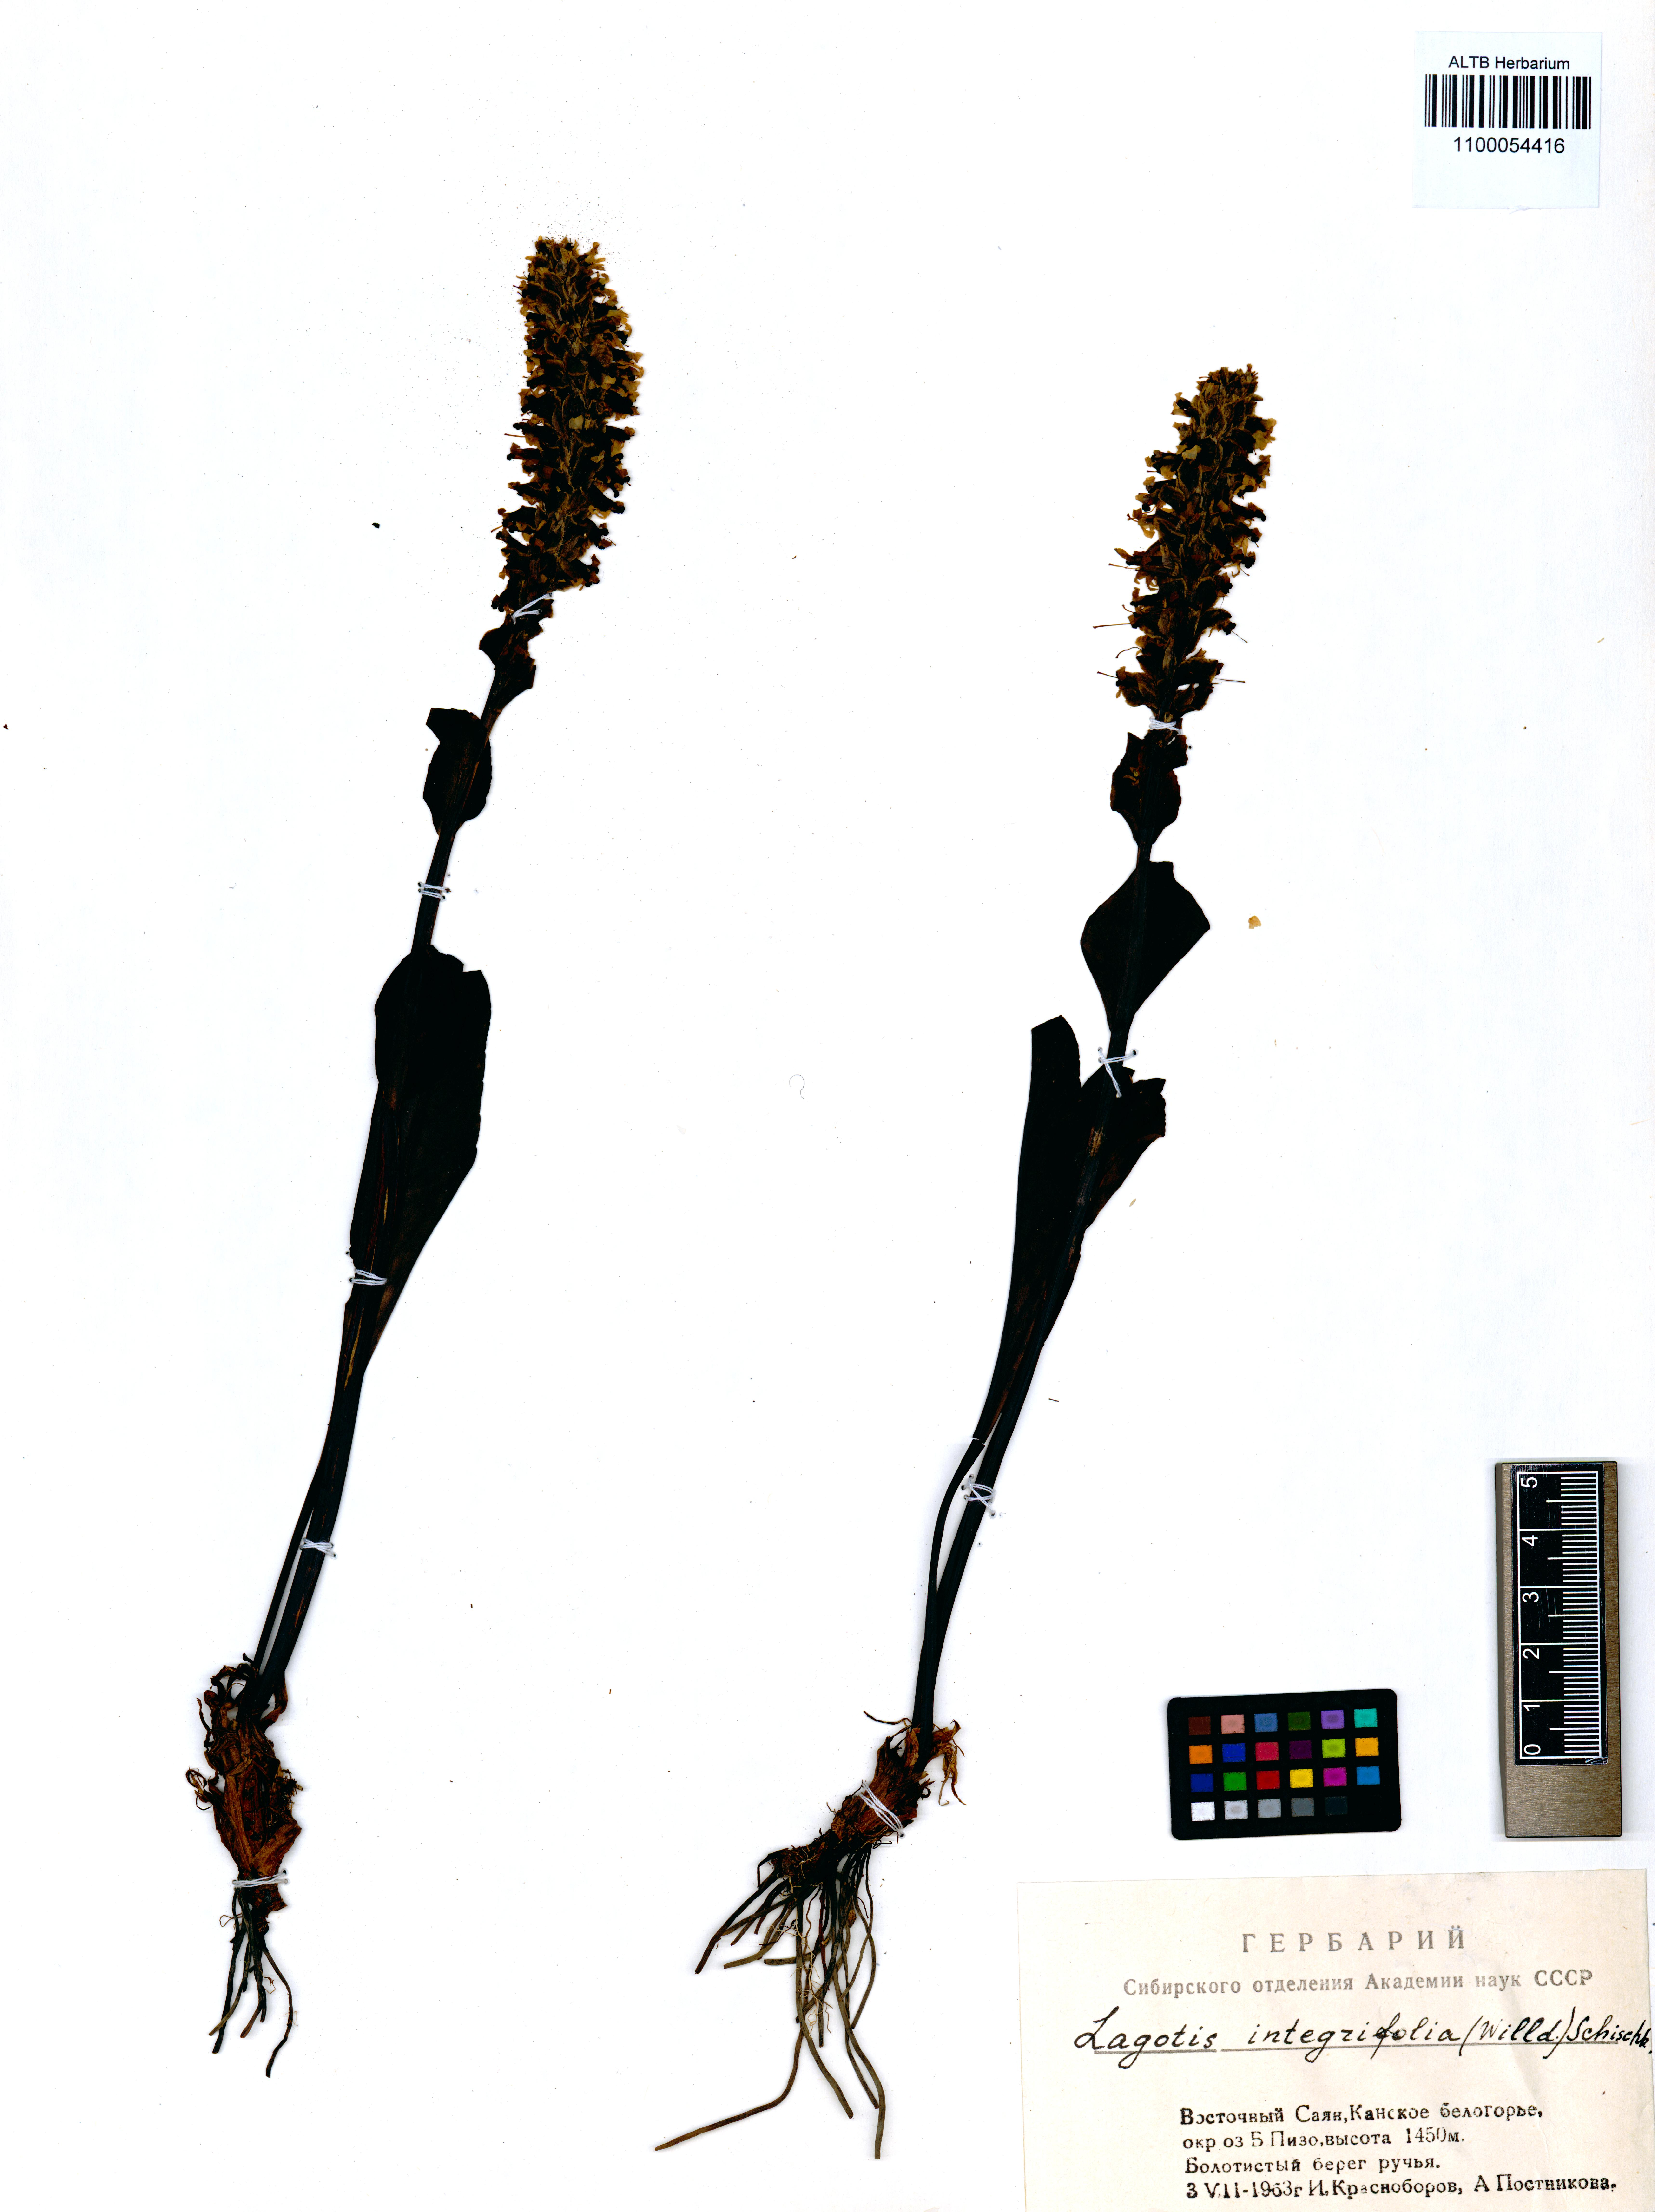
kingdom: Plantae
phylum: Tracheophyta
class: Magnoliopsida
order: Lamiales
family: Plantaginaceae
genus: Lagotis
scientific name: Lagotis integrifolia
